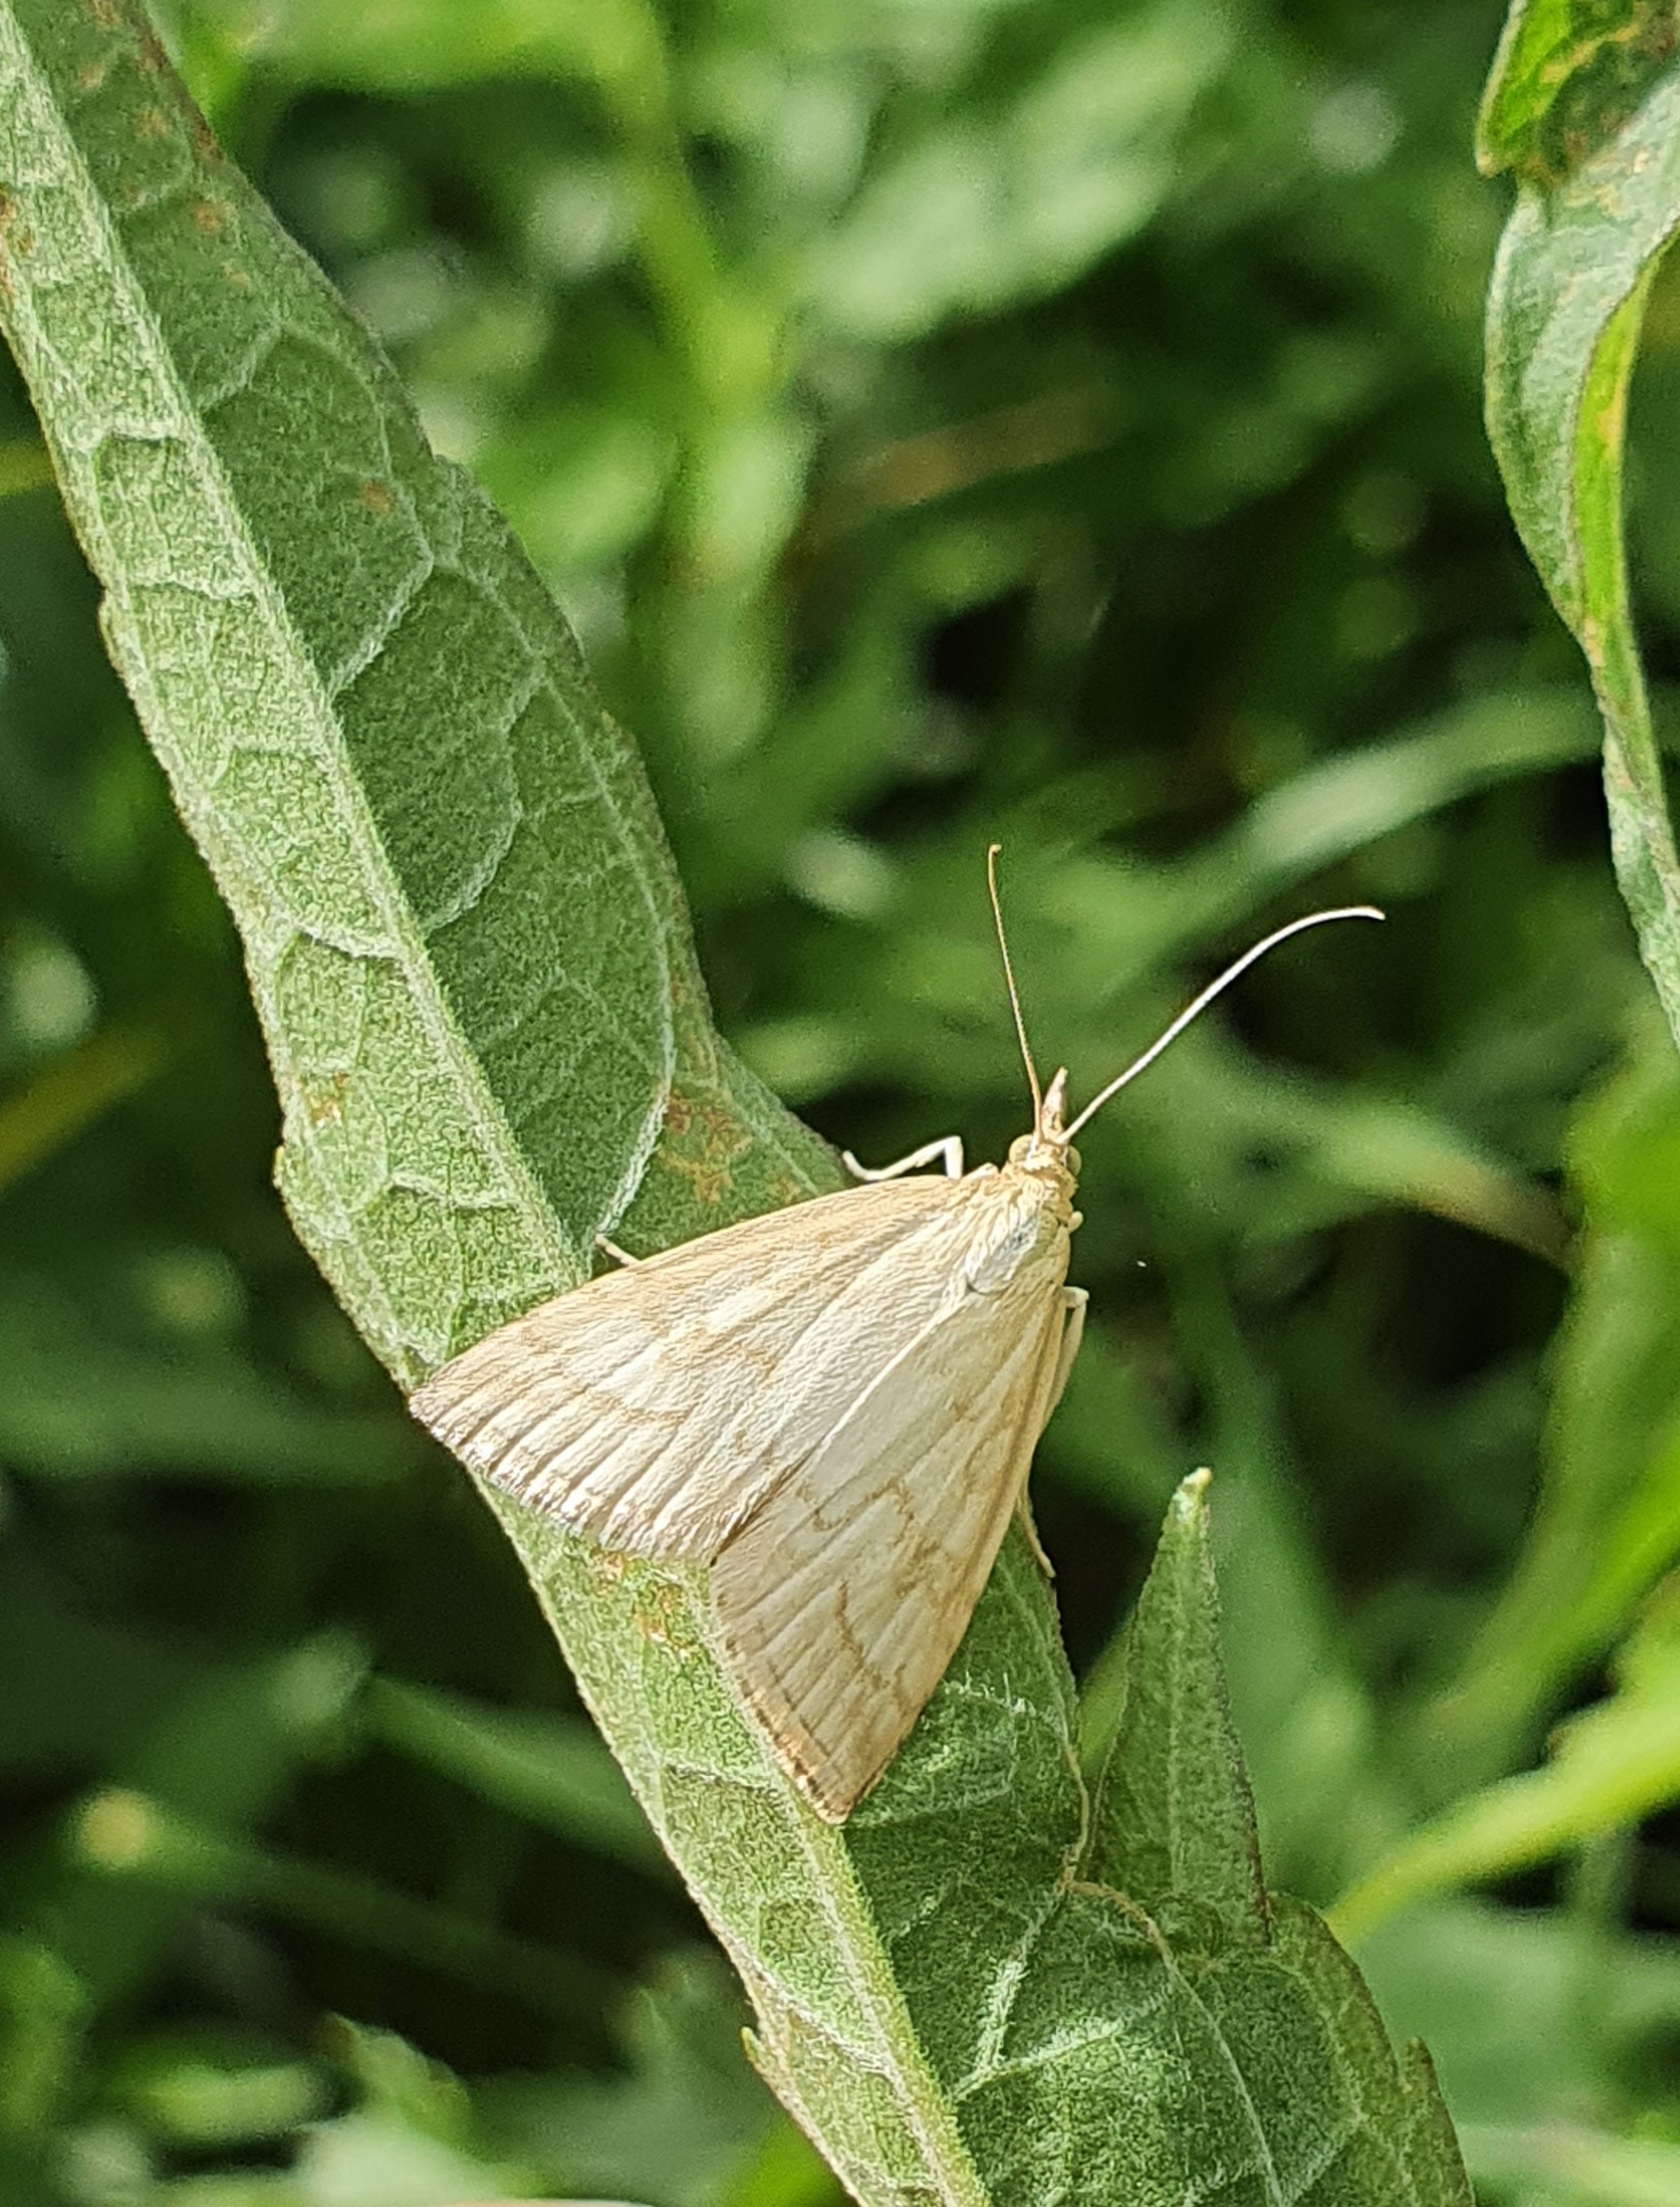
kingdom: Animalia
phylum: Arthropoda
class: Insecta
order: Lepidoptera
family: Crambidae
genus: Udea
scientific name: Udea lutealis
